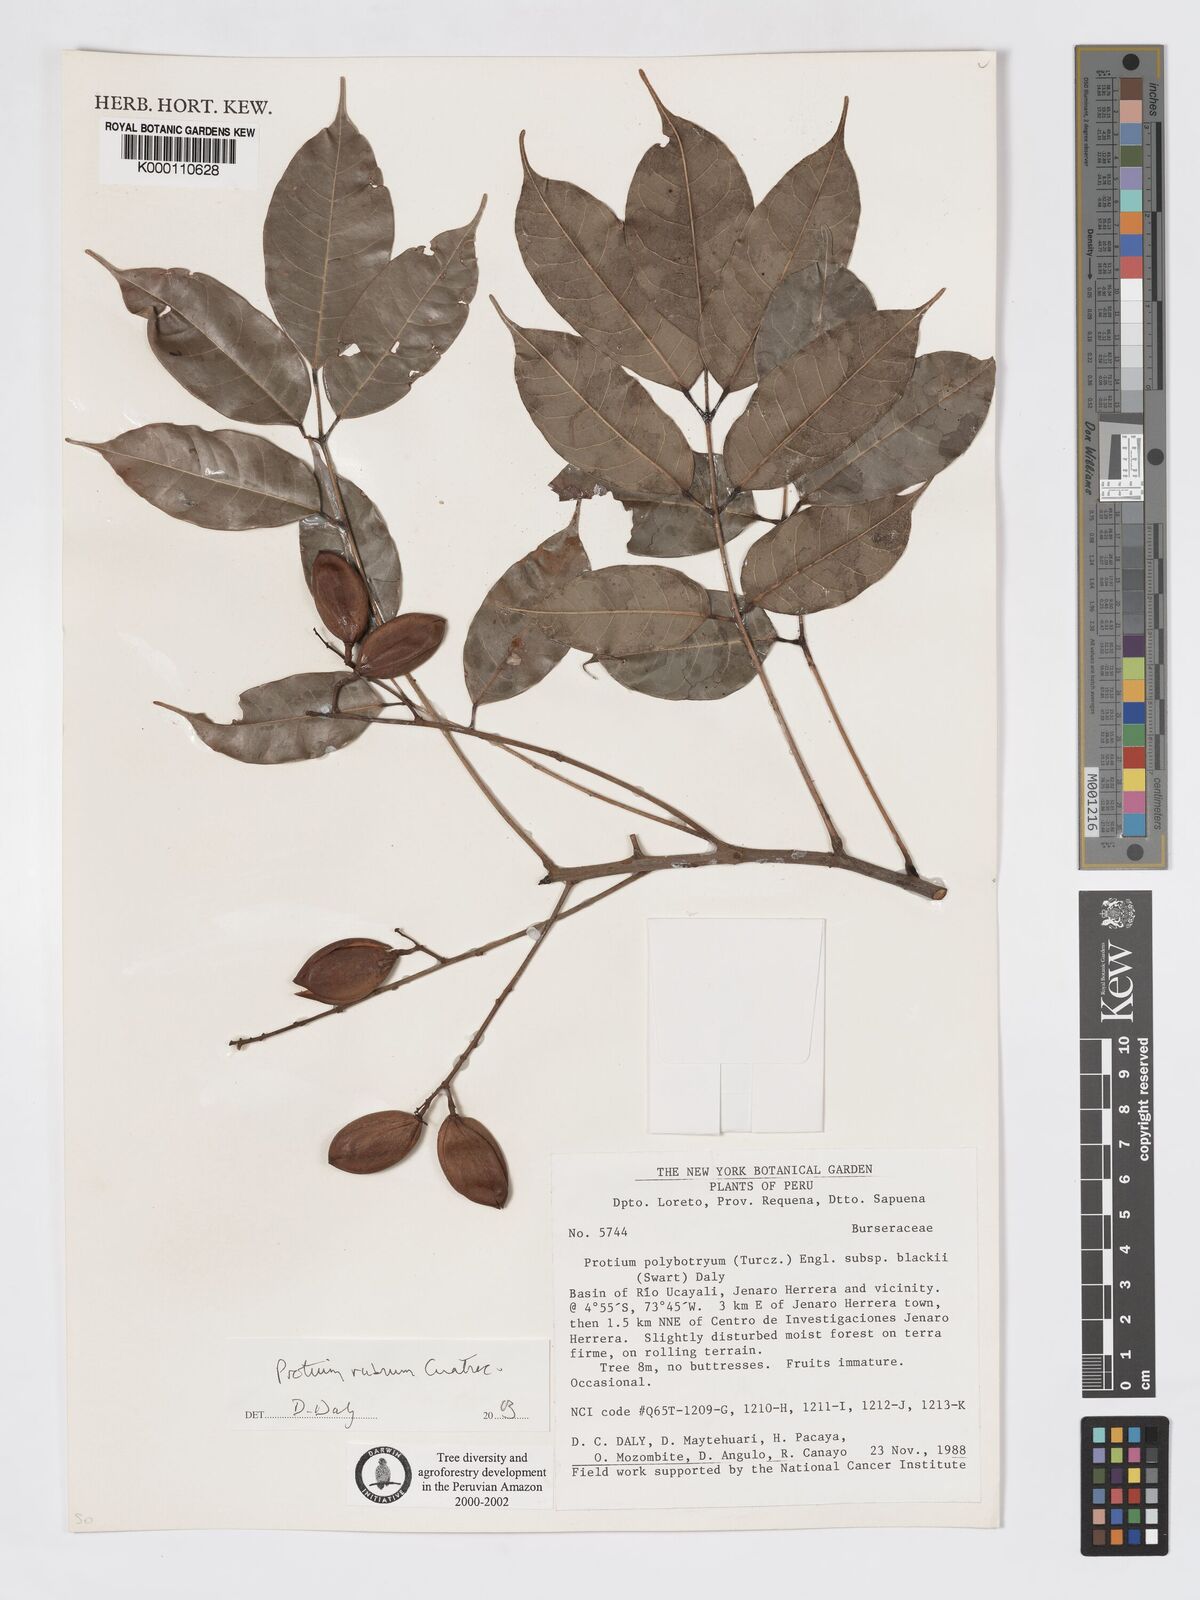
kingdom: Plantae
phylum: Tracheophyta
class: Magnoliopsida
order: Sapindales
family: Burseraceae
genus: Protium
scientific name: Protium rubrum
